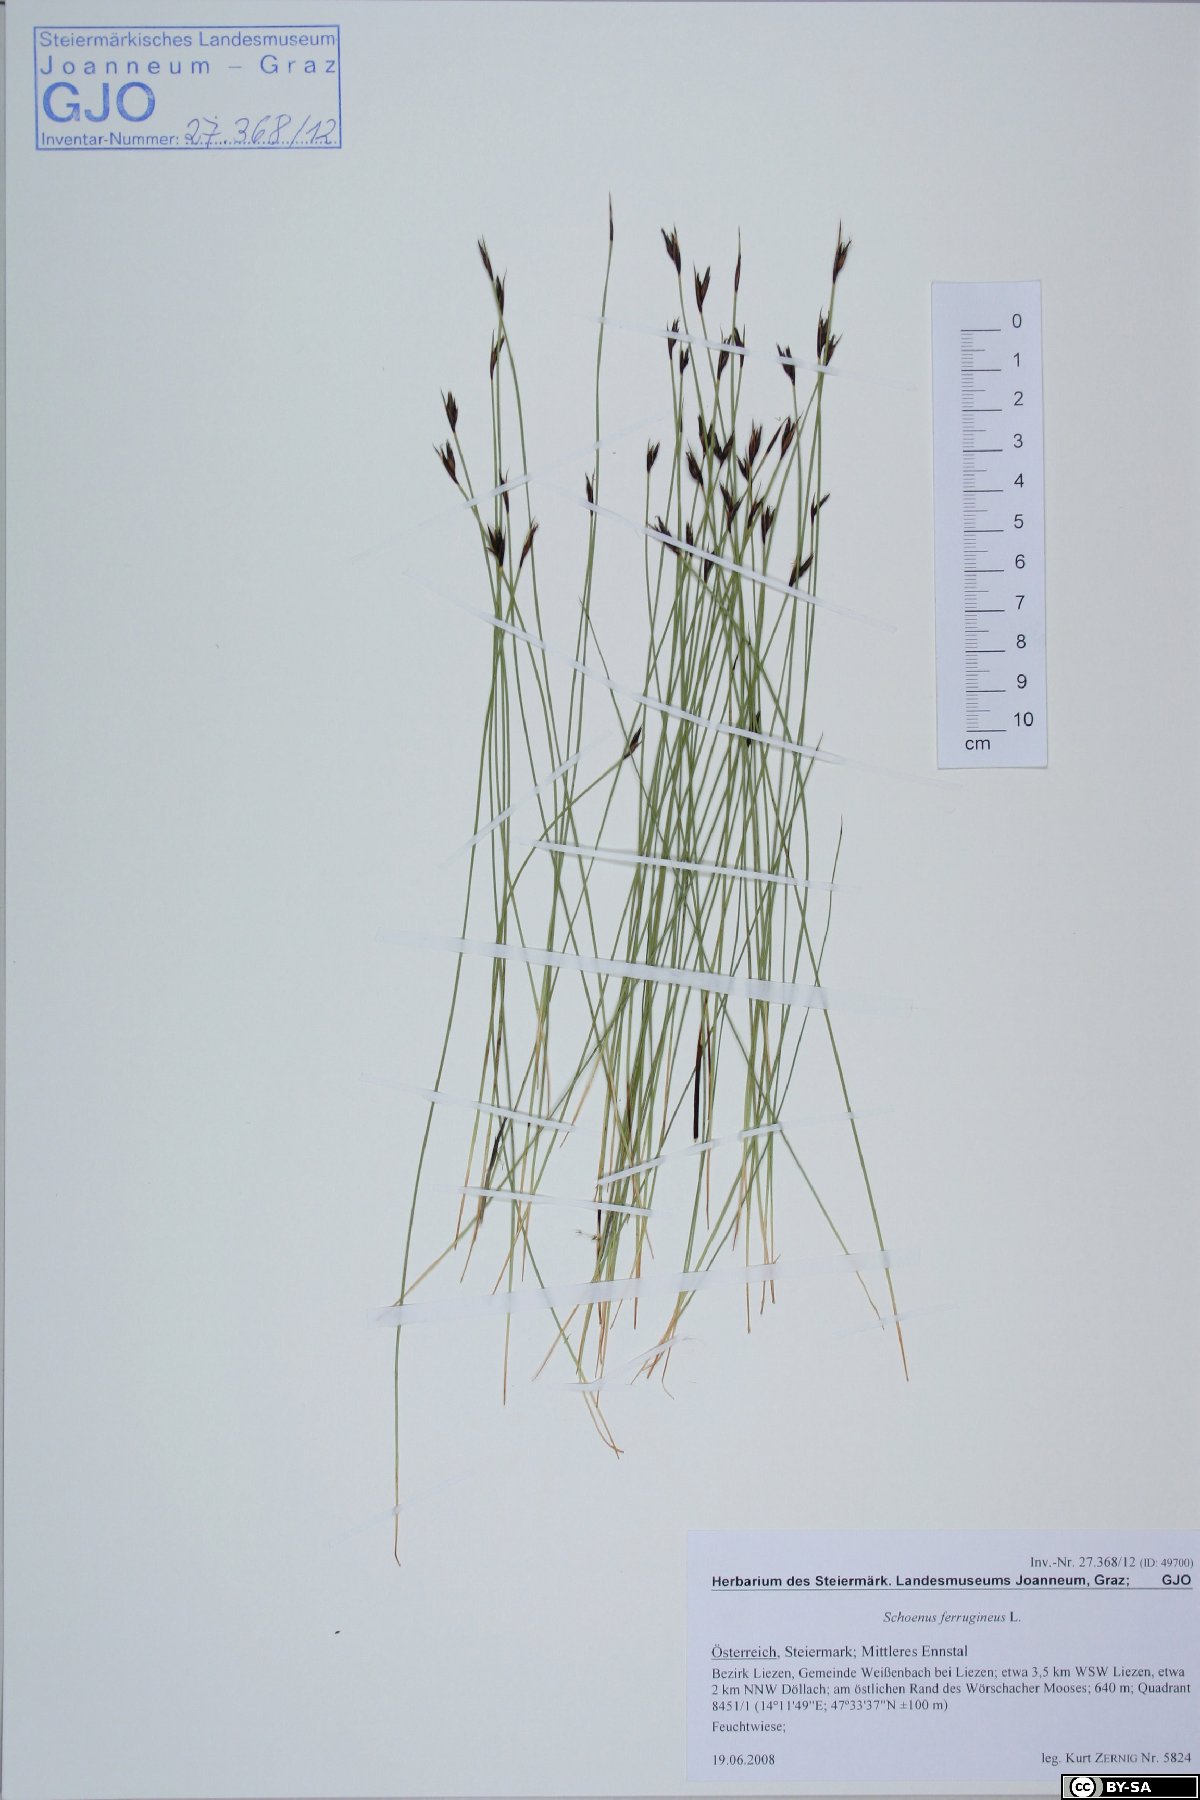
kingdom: Plantae
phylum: Tracheophyta
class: Liliopsida
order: Poales
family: Cyperaceae
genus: Schoenus
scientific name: Schoenus ferrugineus
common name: Brown bog-rush
